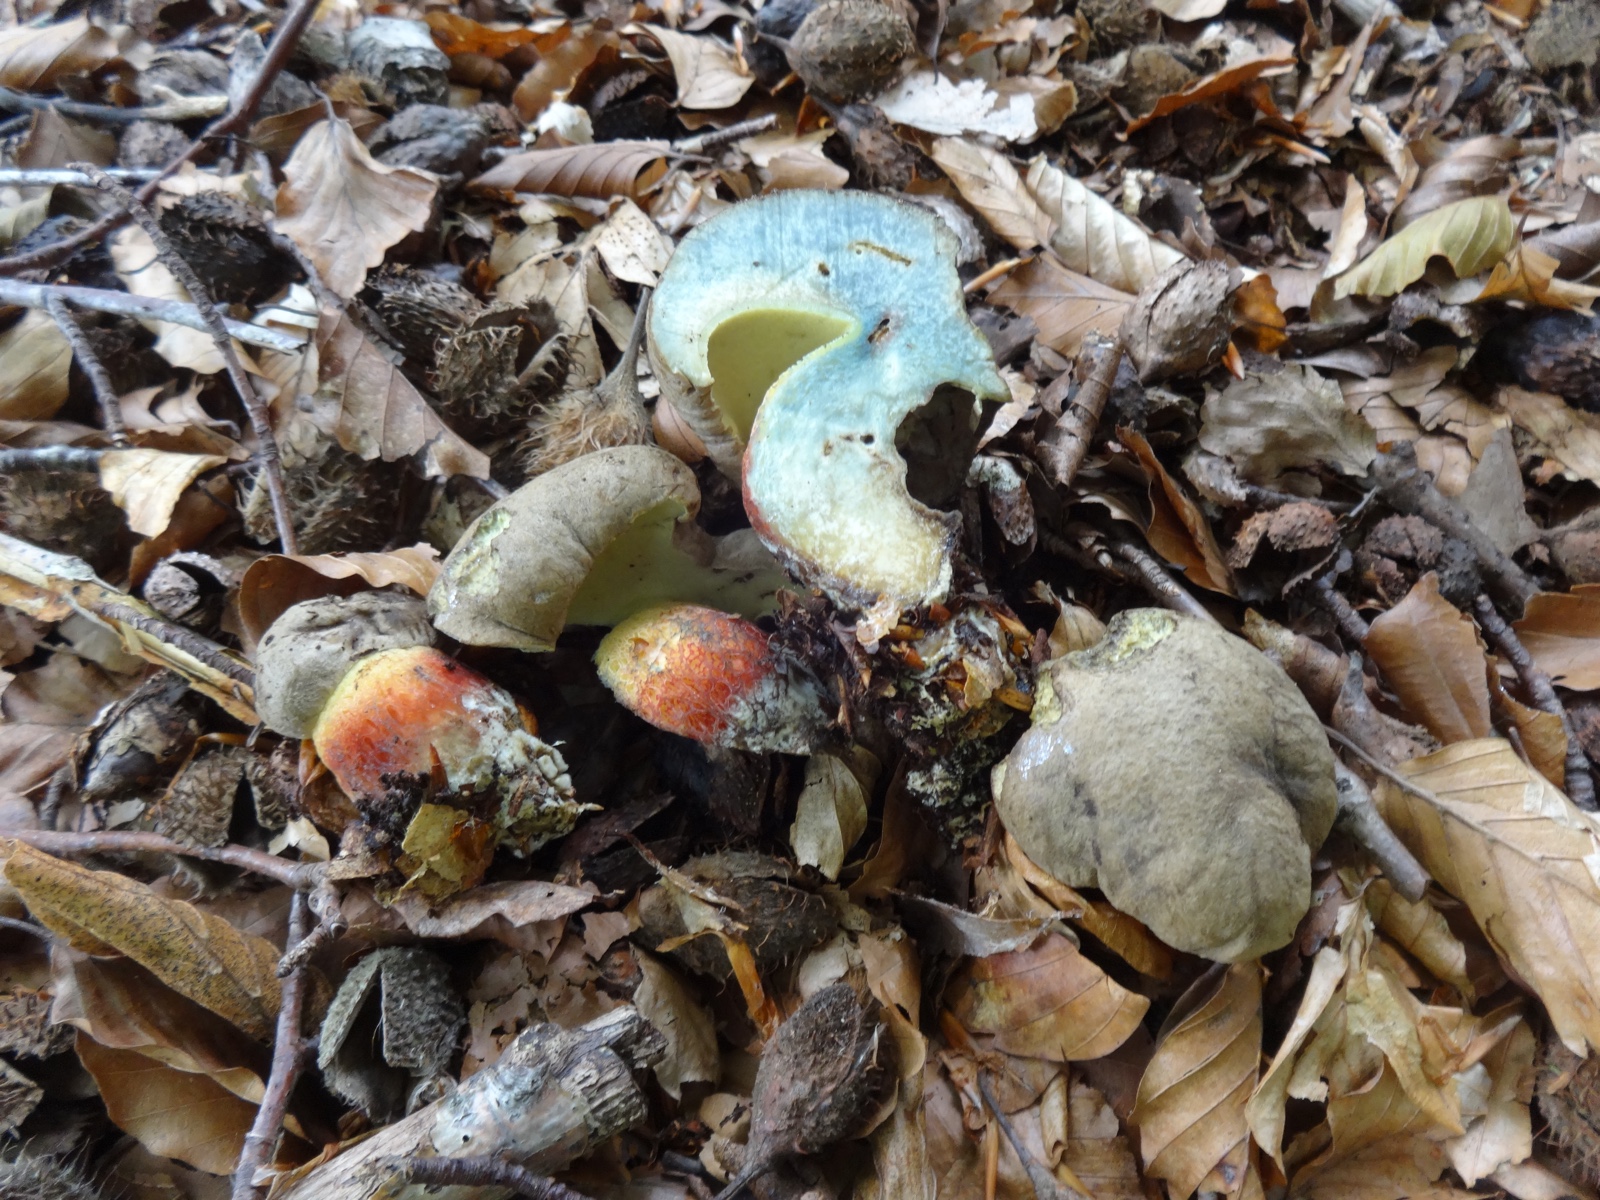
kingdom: Fungi
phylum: Basidiomycota
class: Agaricomycetes
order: Boletales
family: Boletaceae
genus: Caloboletus
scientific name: Caloboletus calopus
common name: skønfodet rørhat
